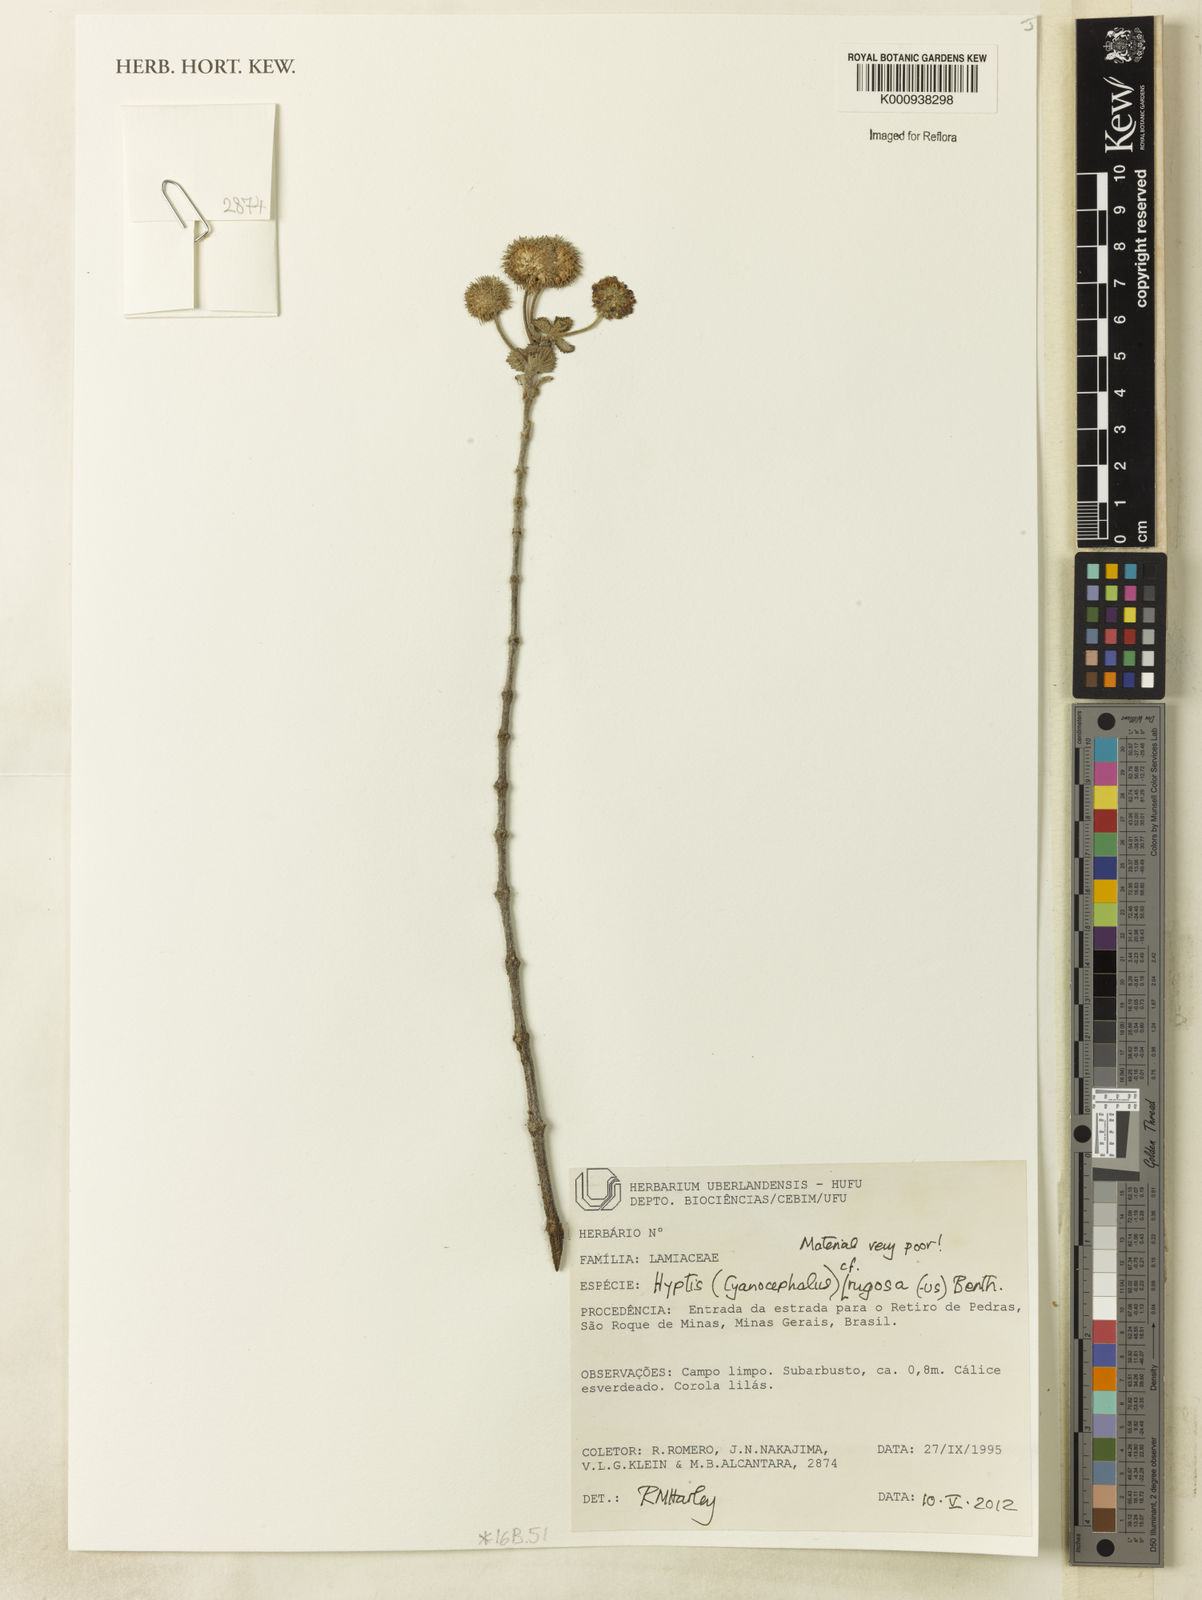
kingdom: Plantae
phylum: Tracheophyta
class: Magnoliopsida
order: Lamiales
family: Lamiaceae
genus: Cyanocephalus
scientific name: Cyanocephalus rugosus
